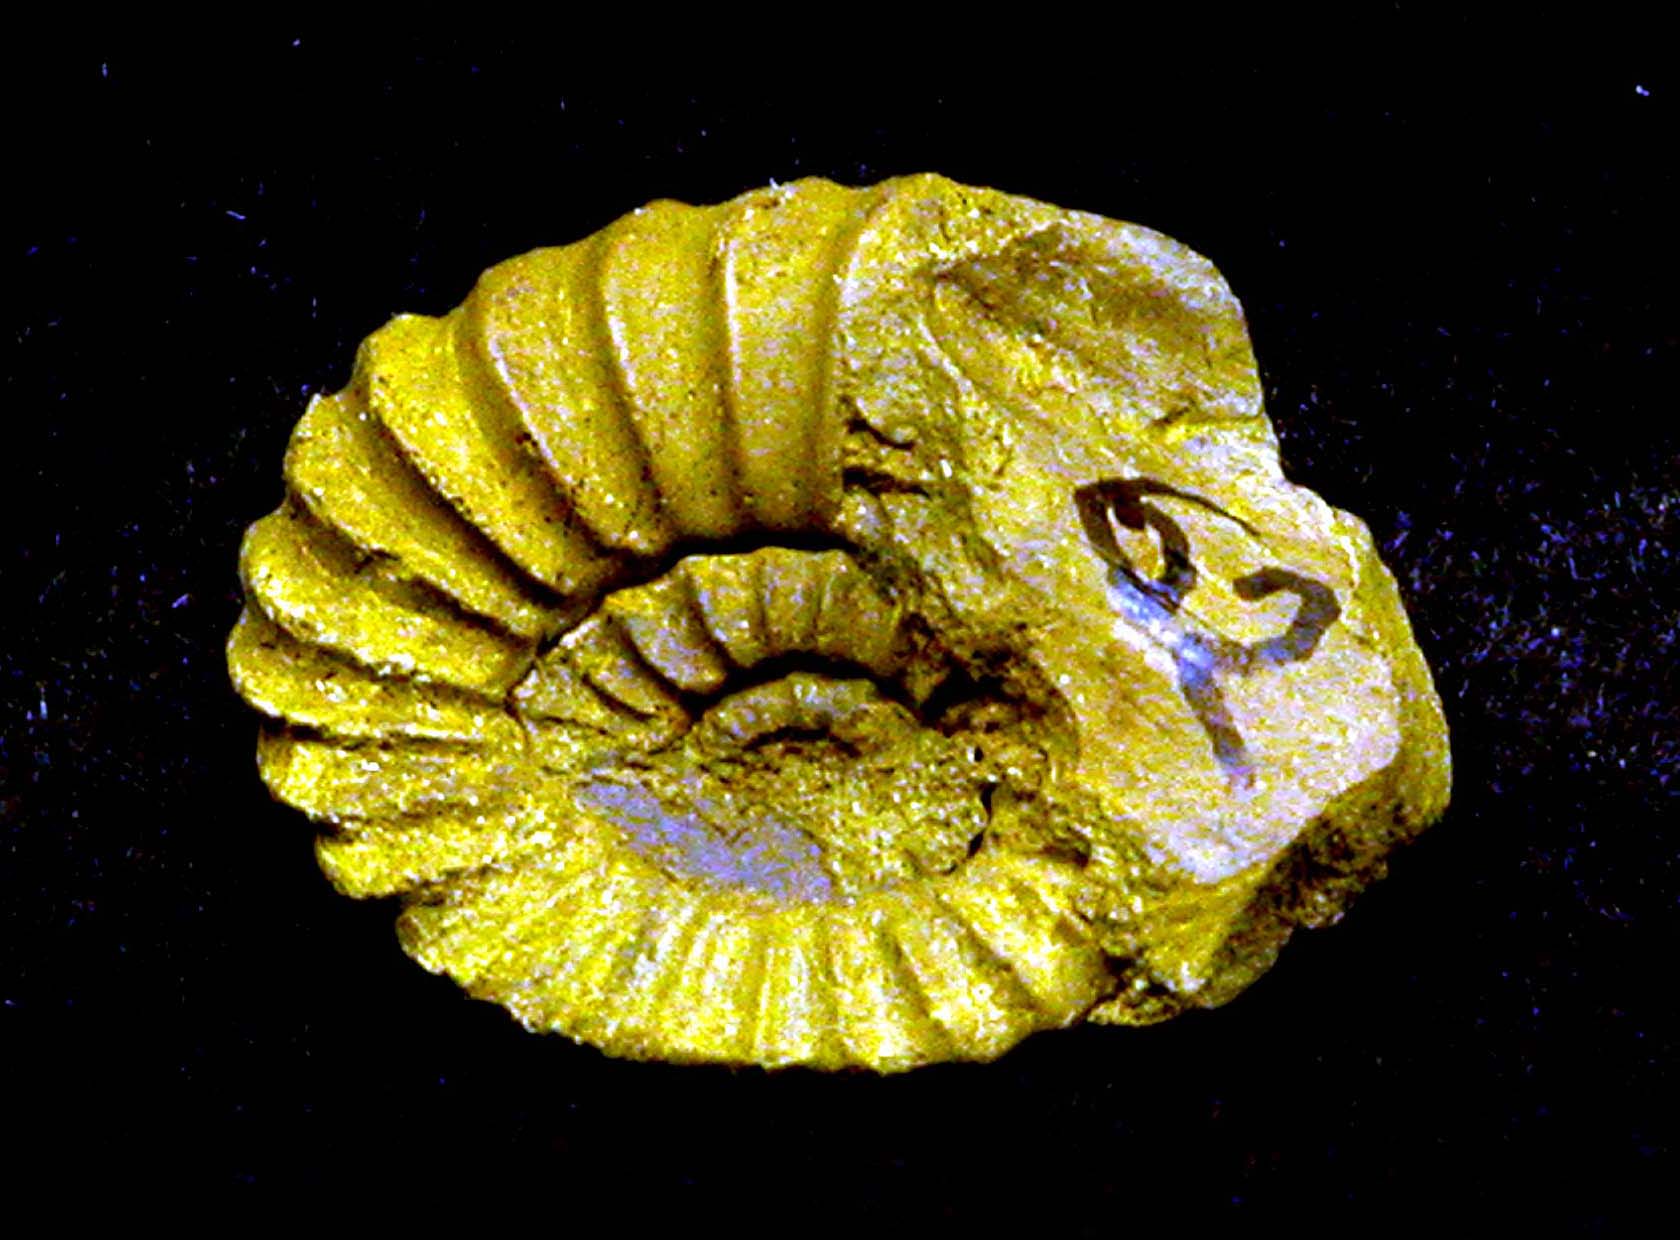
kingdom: Animalia
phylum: Mollusca
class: Cephalopoda
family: Liparoceratidae
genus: Amblycoceras
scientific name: Amblycoceras
